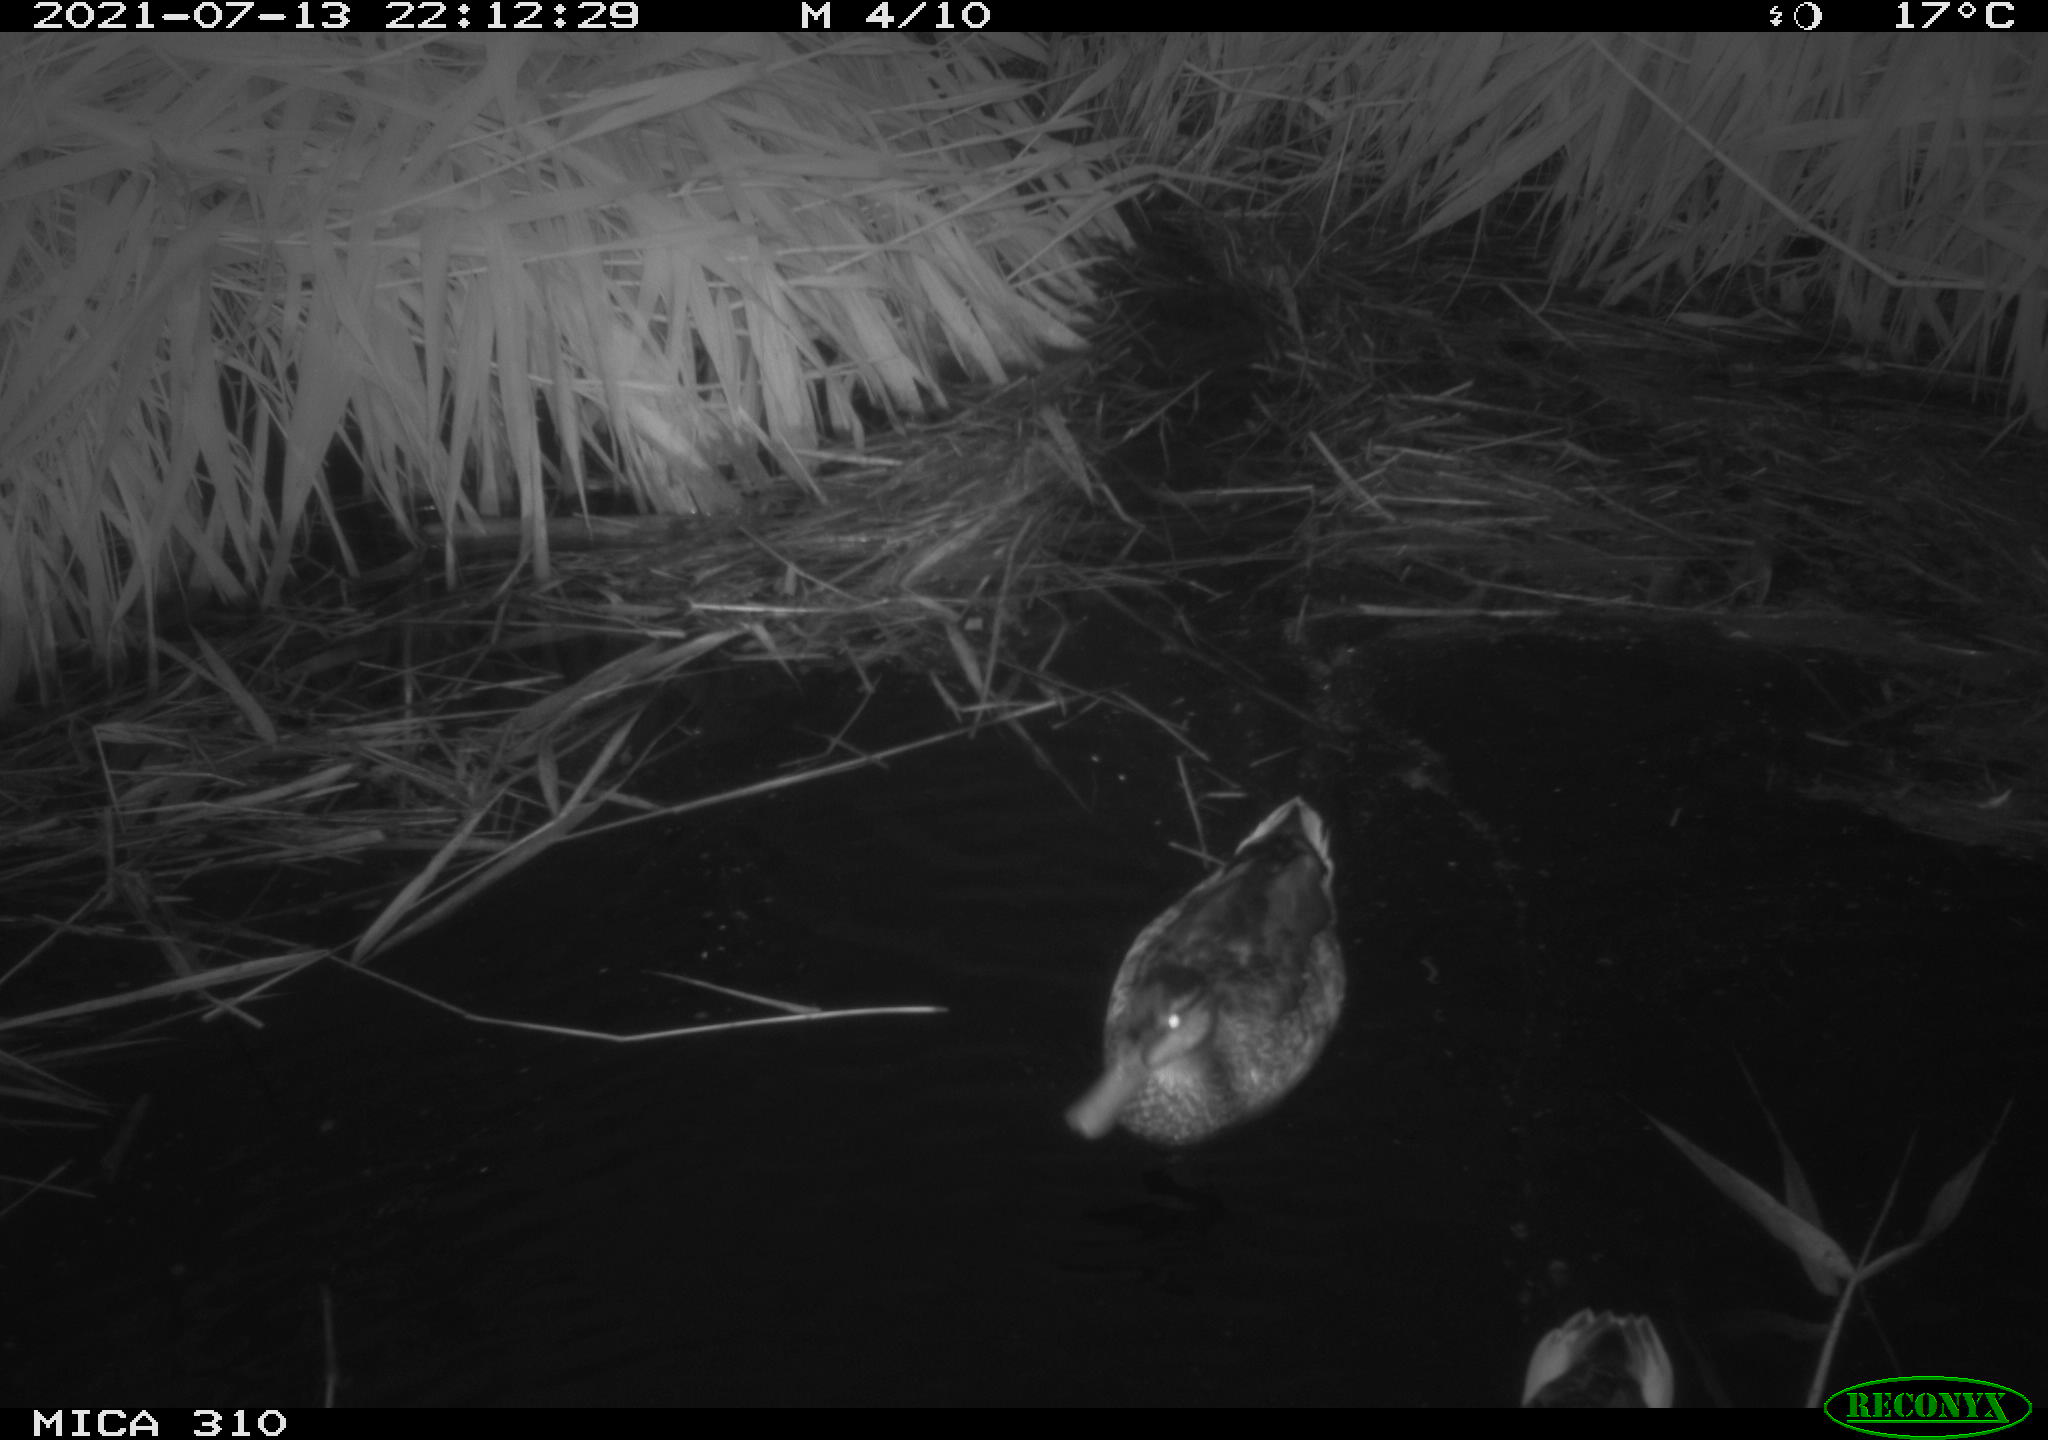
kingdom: Animalia
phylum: Chordata
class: Aves
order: Anseriformes
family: Anatidae
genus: Anas
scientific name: Anas platyrhynchos
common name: Mallard
